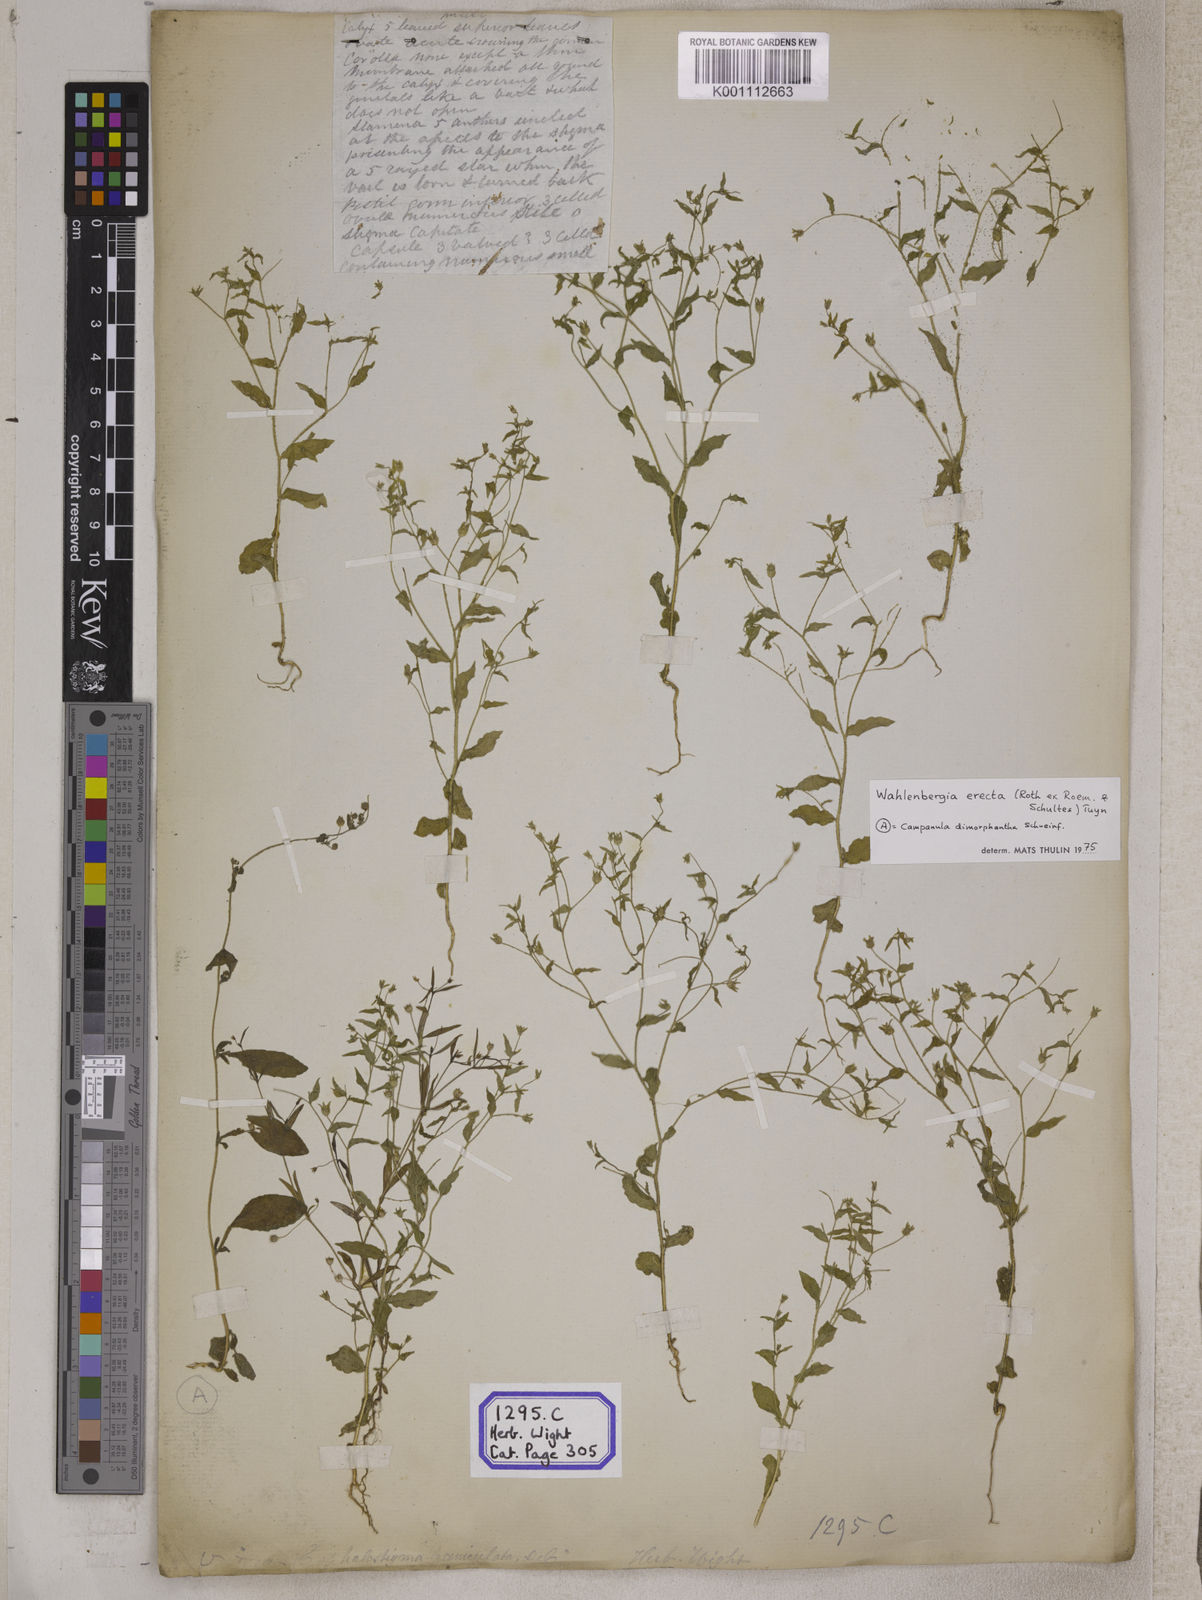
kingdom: Plantae
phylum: Tracheophyta
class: Magnoliopsida
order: Asterales
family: Campanulaceae
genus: Campanula
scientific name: Campanula
